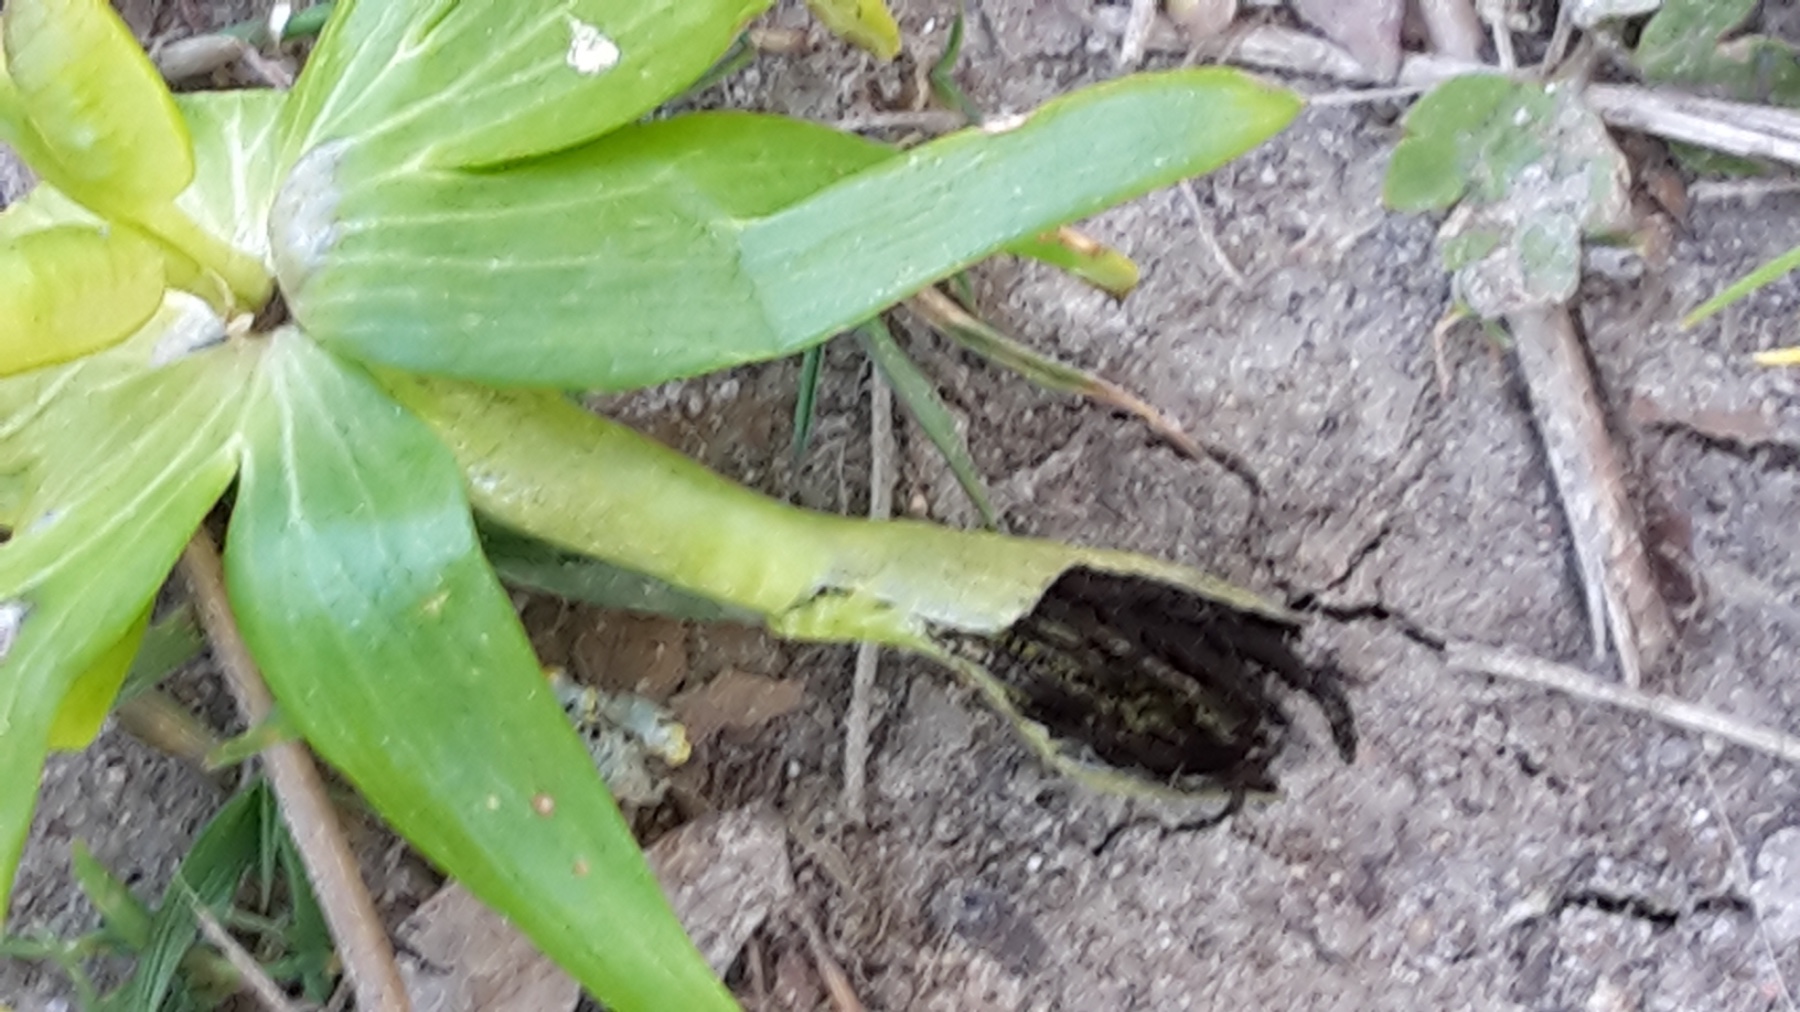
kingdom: Fungi
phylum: Basidiomycota
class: Ustilaginomycetes
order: Urocystidales
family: Urocystidaceae
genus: Urocystis
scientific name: Urocystis eranthidis
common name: erantis-brand
